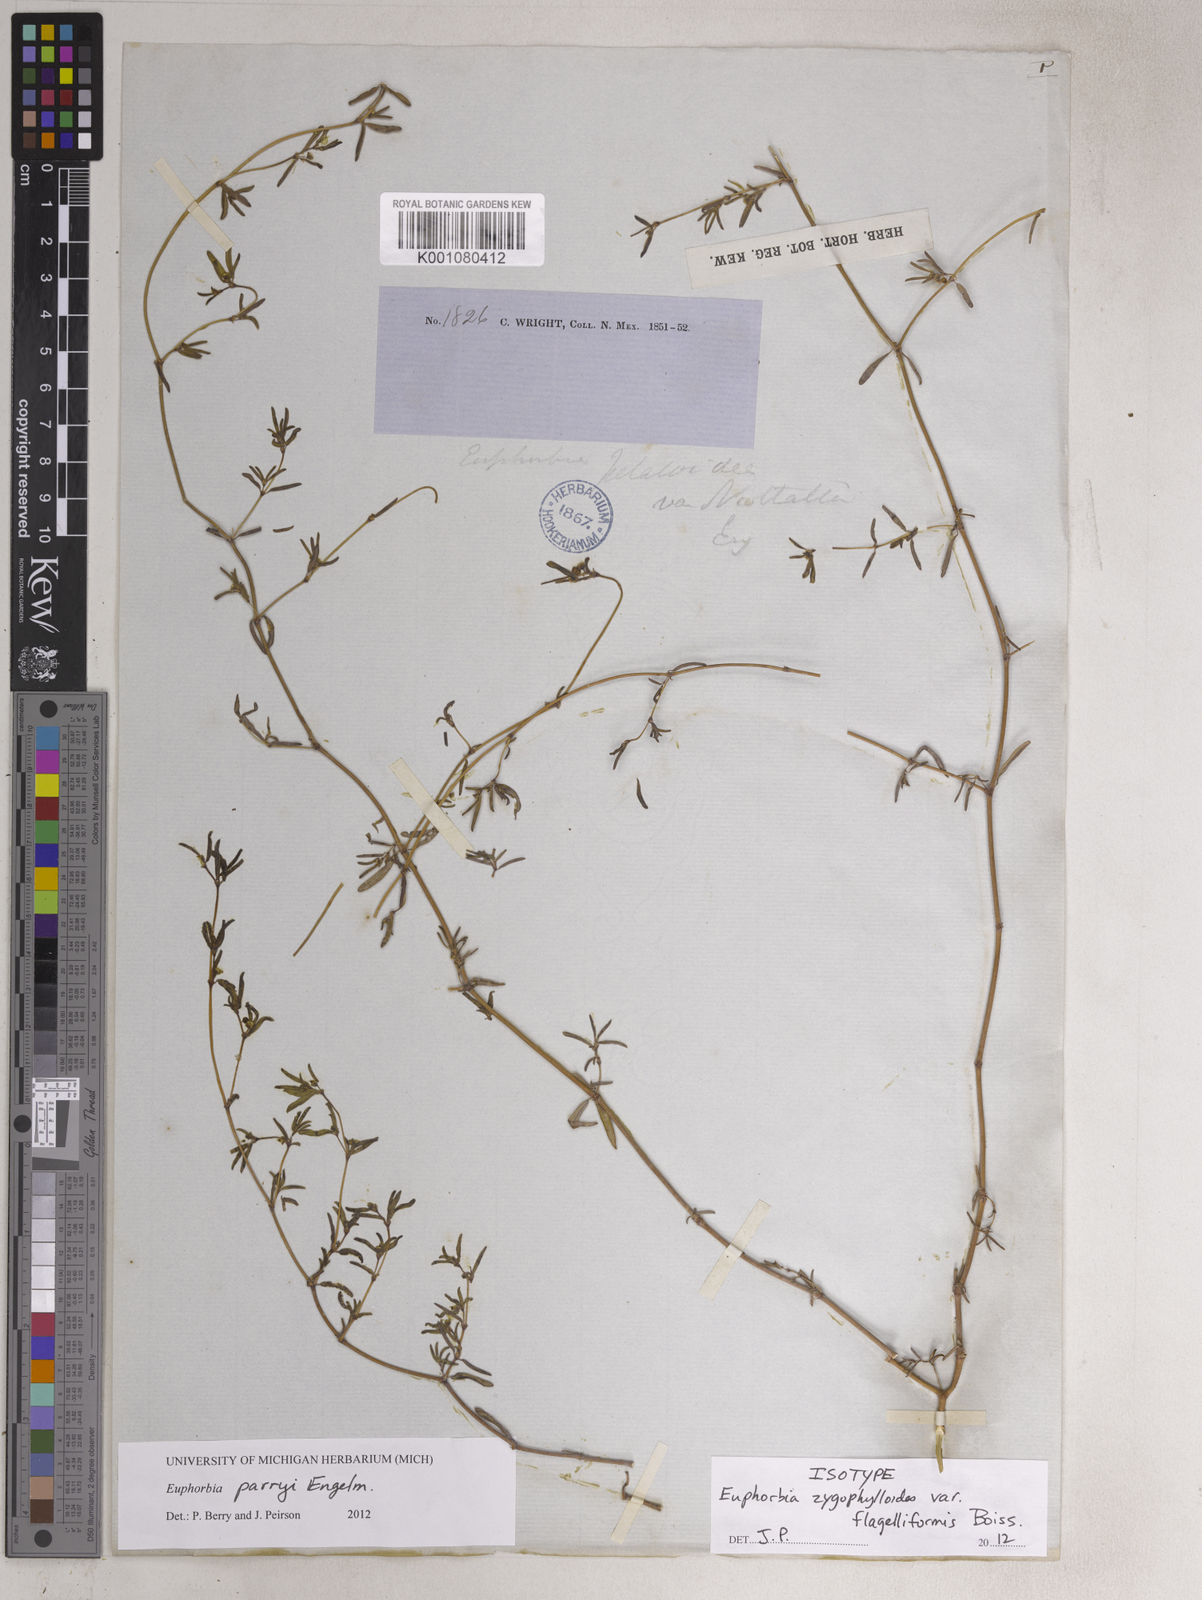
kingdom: Plantae
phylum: Tracheophyta
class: Magnoliopsida
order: Malpighiales
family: Euphorbiaceae
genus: Euphorbia
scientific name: Euphorbia parryi
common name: Dune spurge
